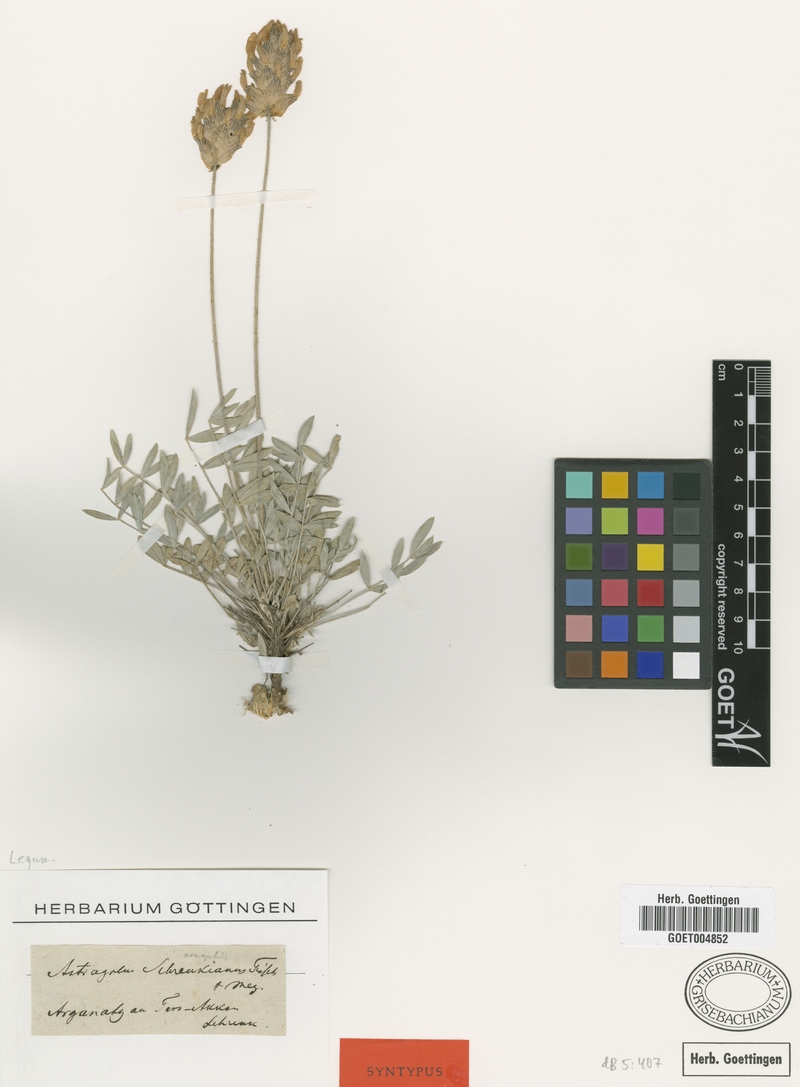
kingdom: Plantae
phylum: Tracheophyta
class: Magnoliopsida
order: Fabales
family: Fabaceae
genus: Astragalus
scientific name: Astragalus schrenkianus
